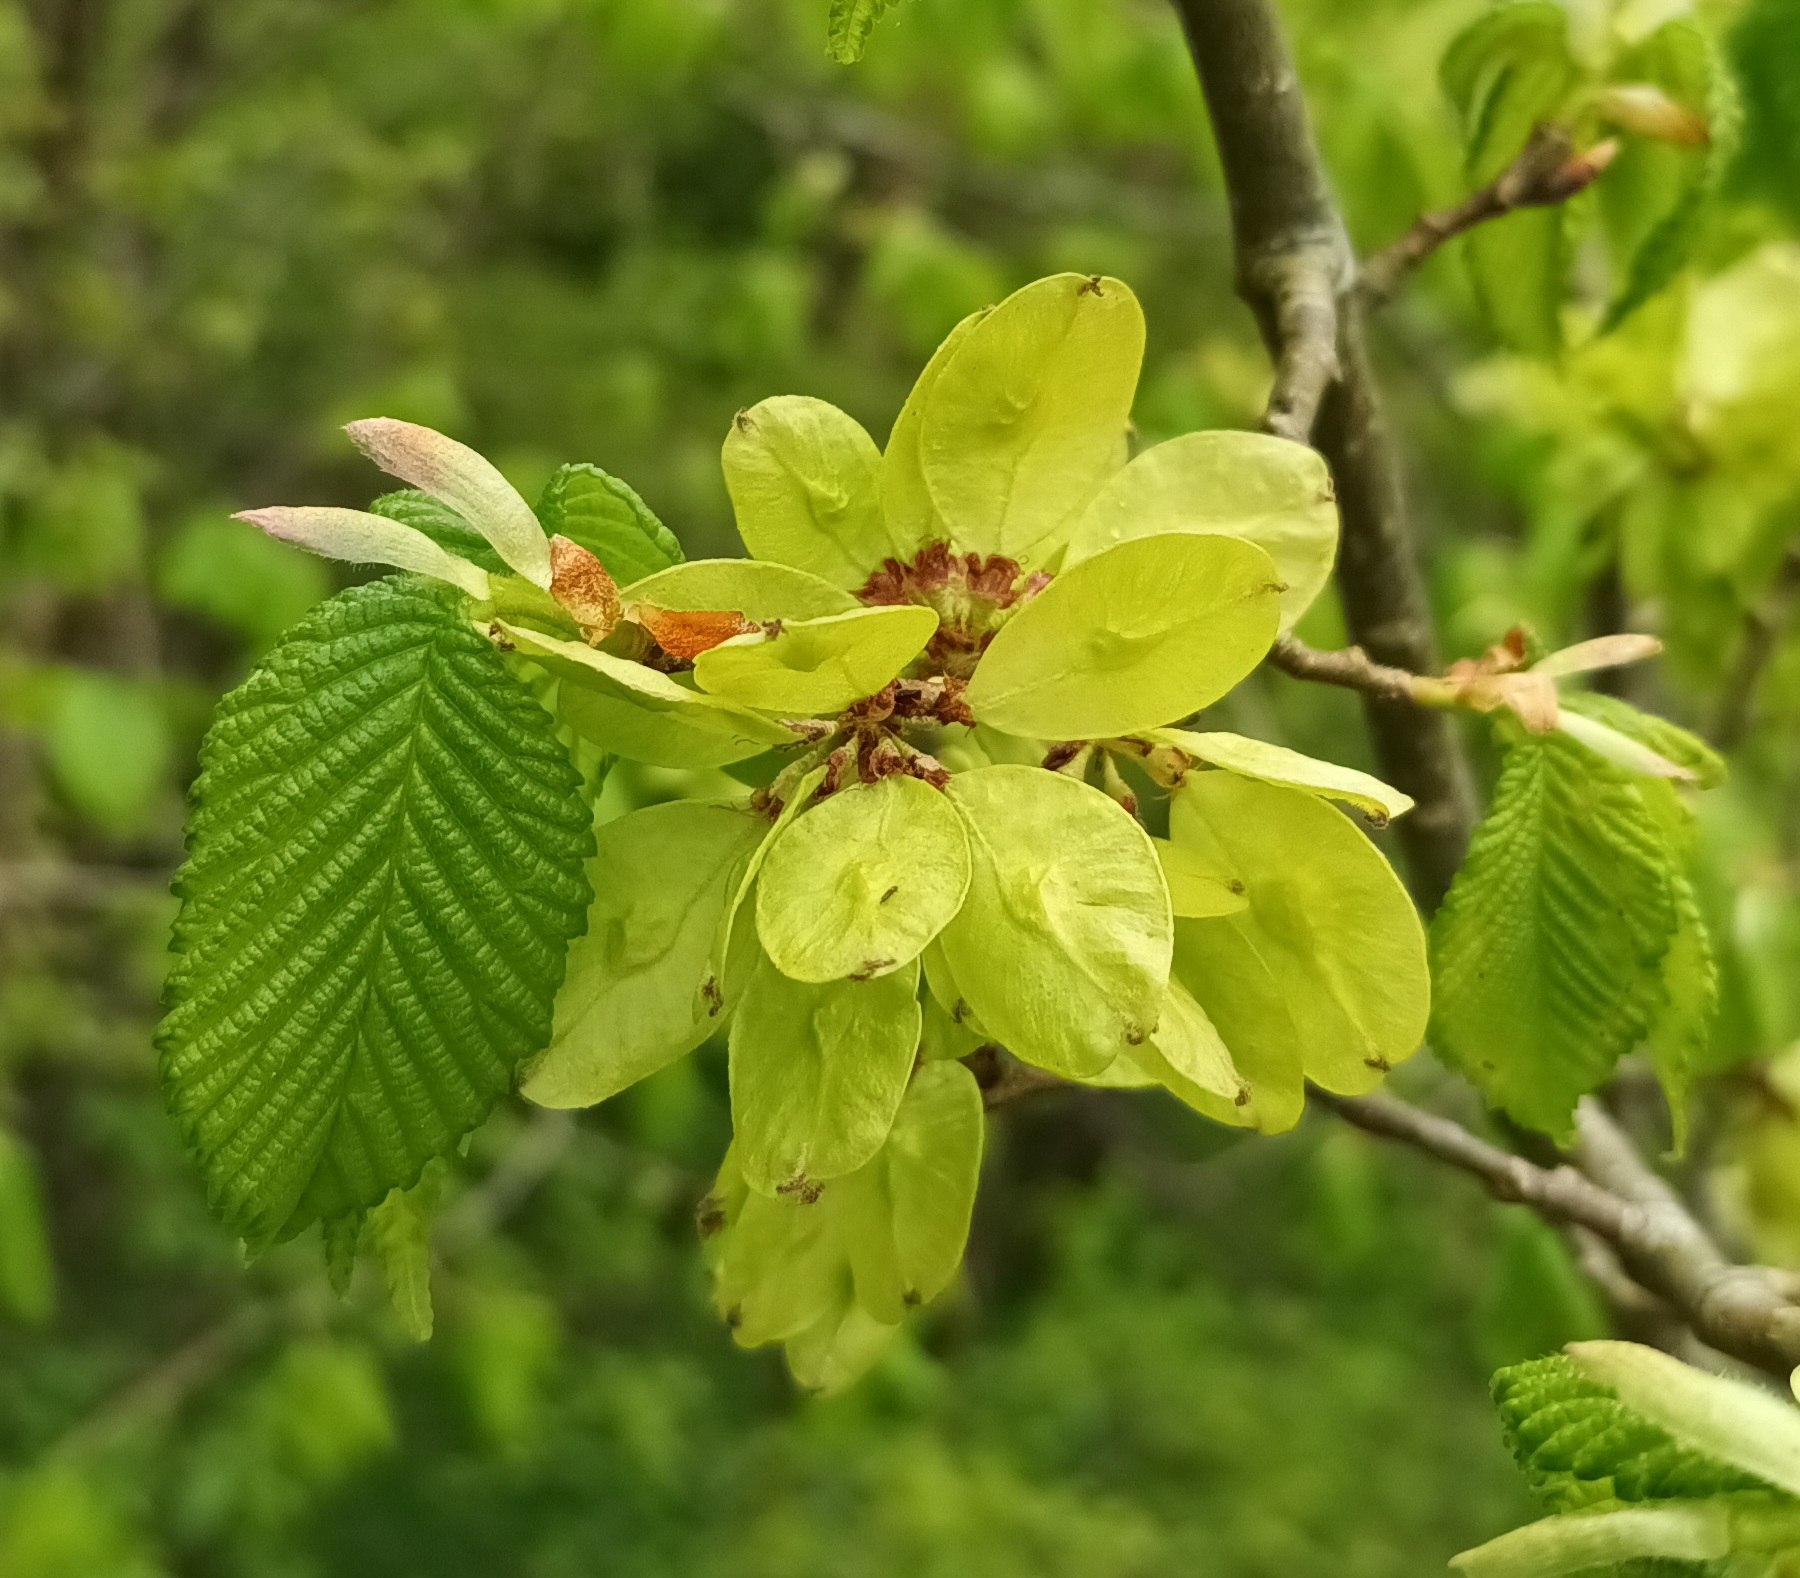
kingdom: Plantae
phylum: Tracheophyta
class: Magnoliopsida
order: Rosales
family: Ulmaceae
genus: Ulmus
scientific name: Ulmus glabra
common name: Skov-elm/storbladet elm
